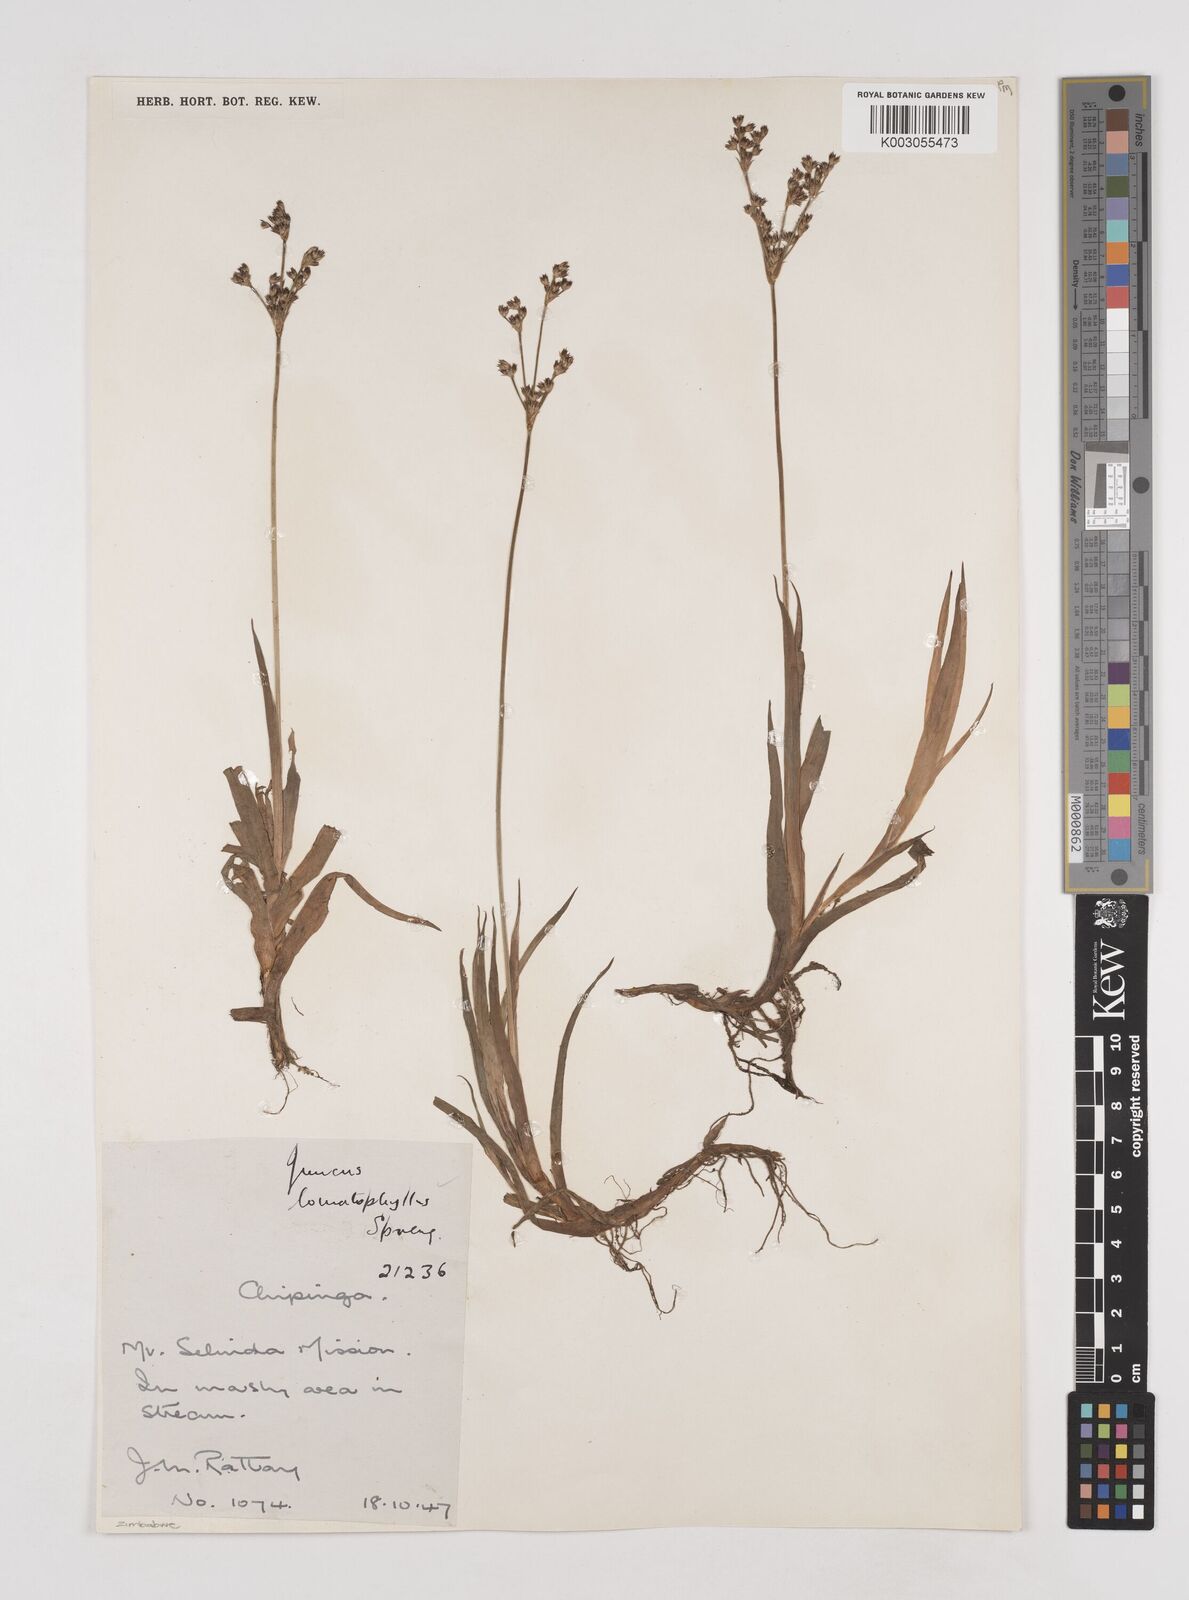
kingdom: Plantae
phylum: Tracheophyta
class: Liliopsida
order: Poales
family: Juncaceae
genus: Juncus
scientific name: Juncus lomatophyllus
